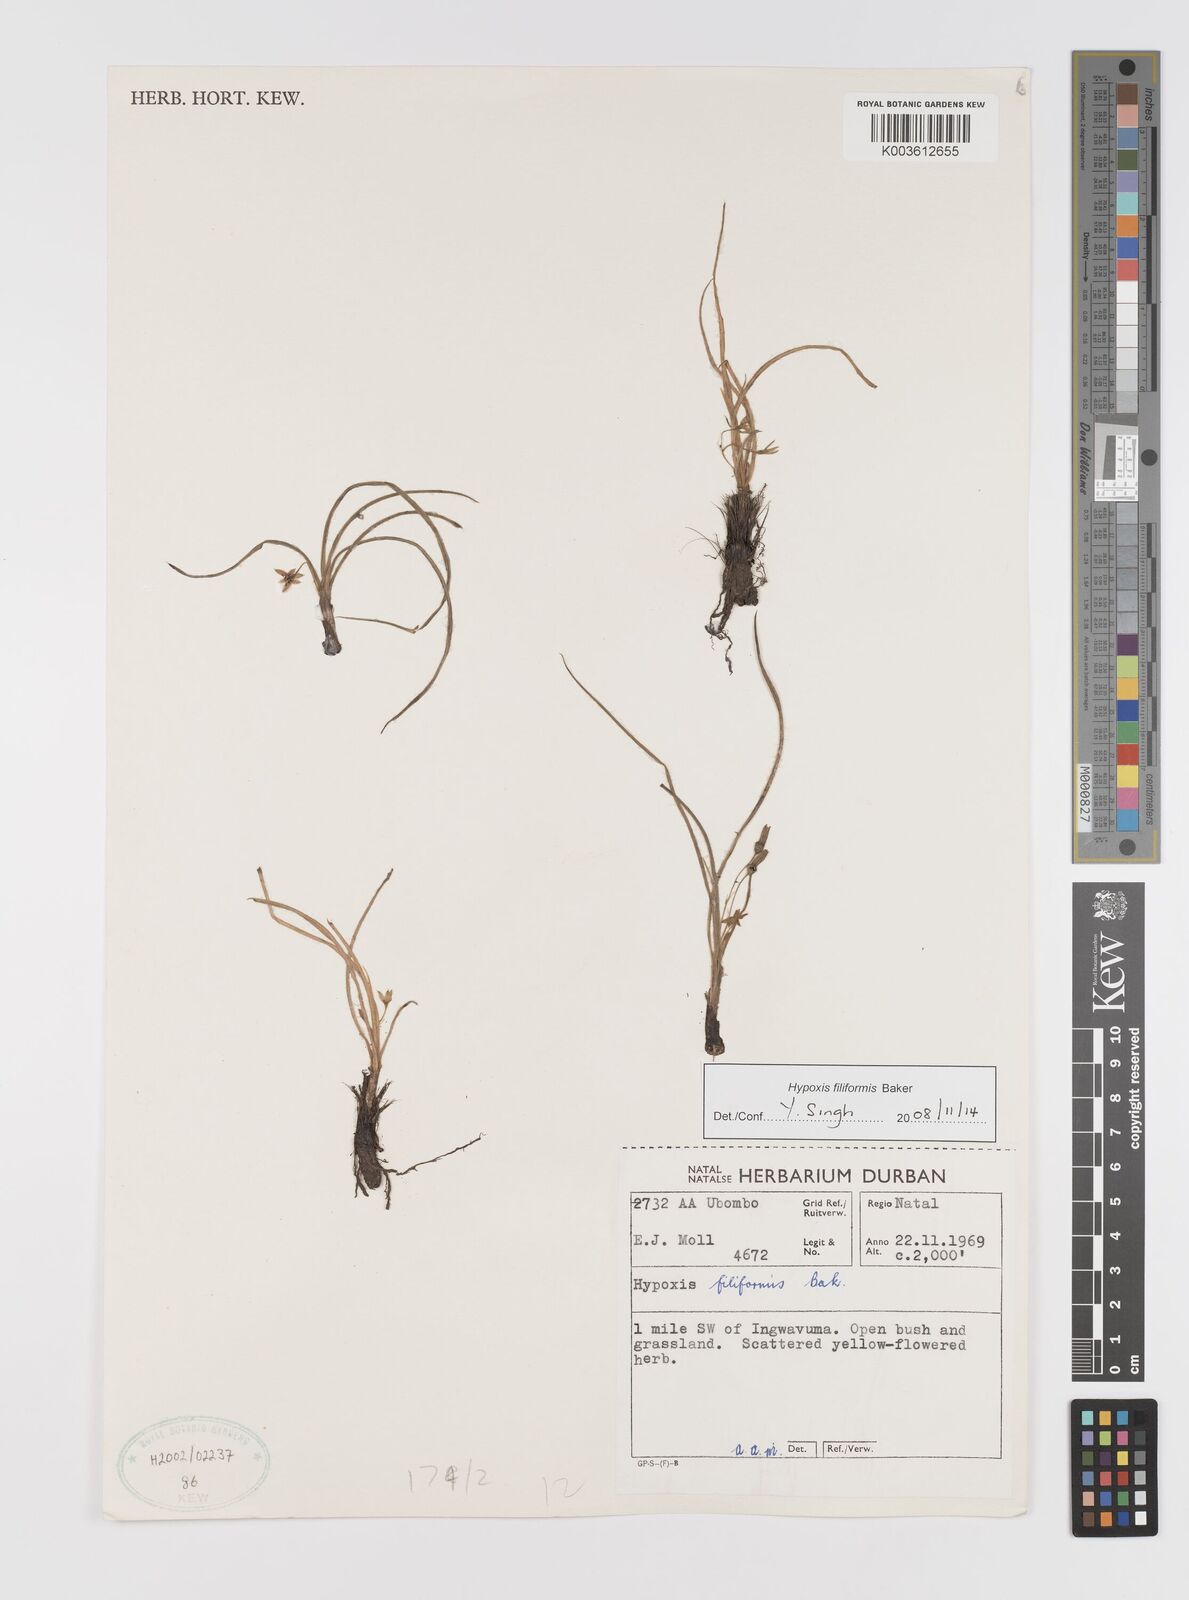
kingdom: Plantae
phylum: Tracheophyta
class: Liliopsida
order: Asparagales
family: Hypoxidaceae
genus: Hypoxis
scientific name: Hypoxis filiformis
